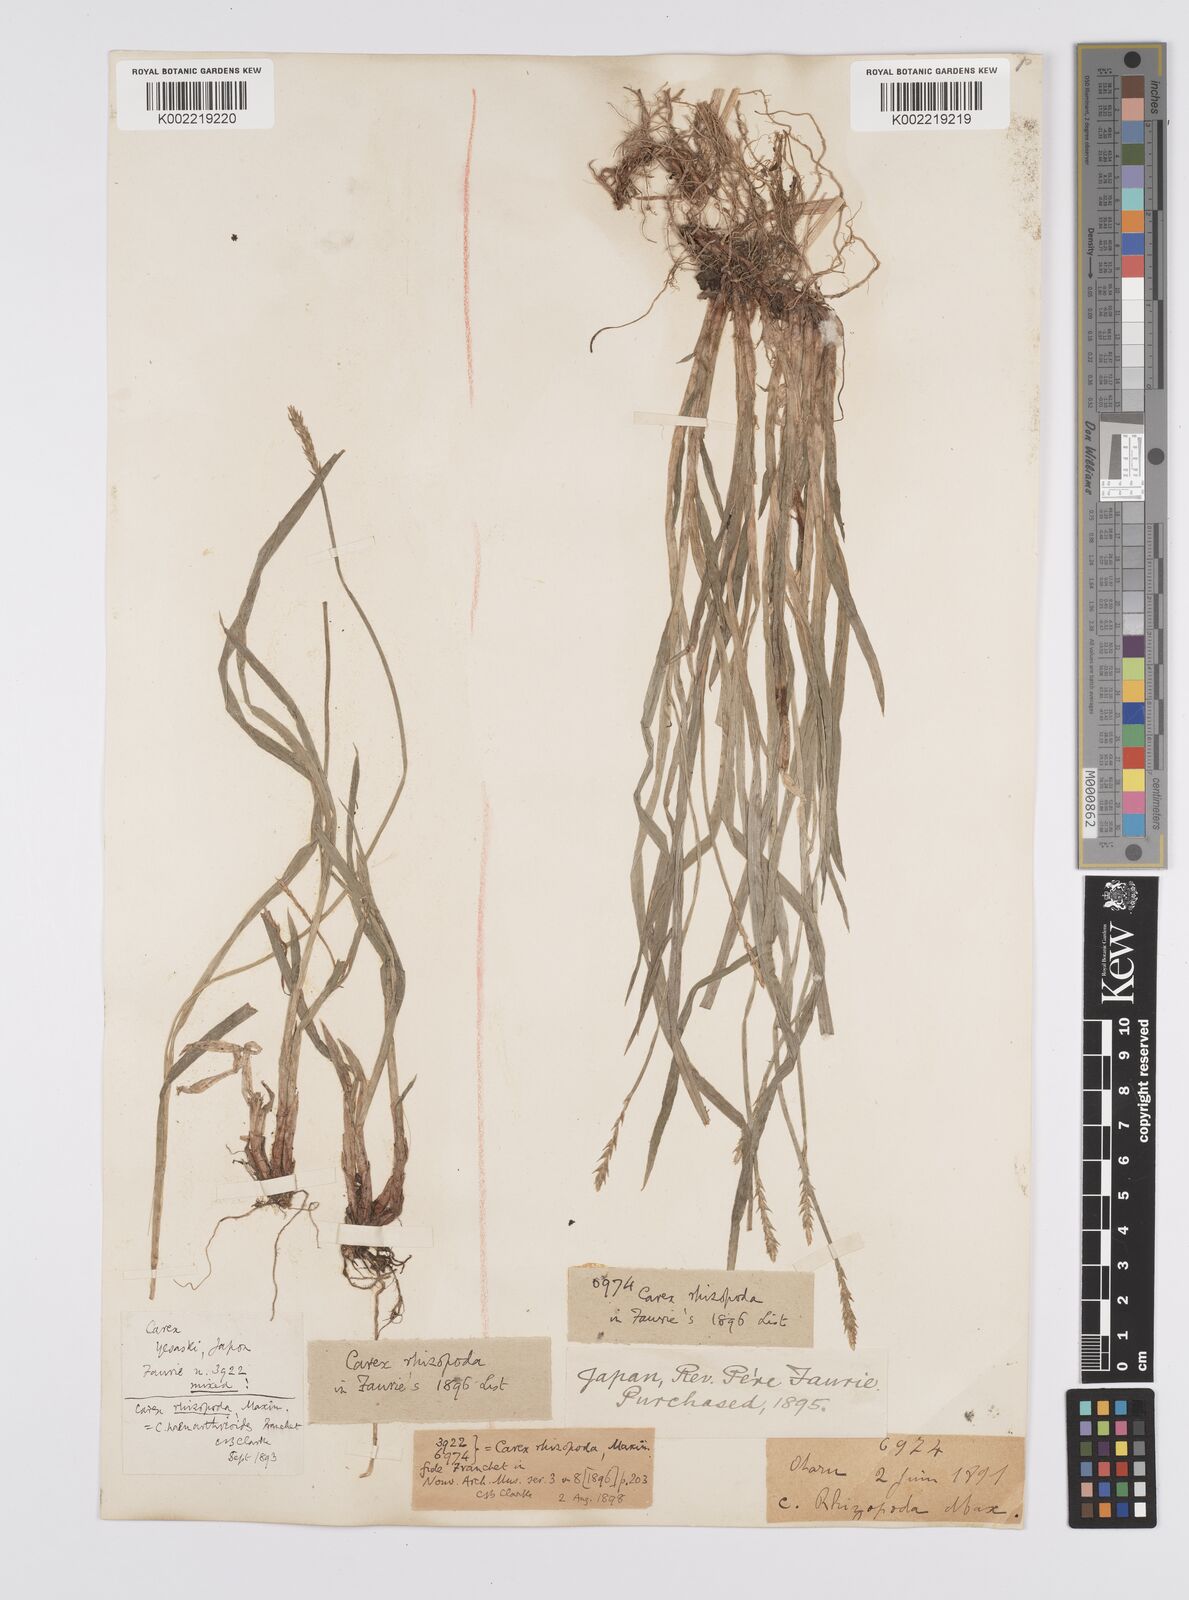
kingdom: Plantae
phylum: Tracheophyta
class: Liliopsida
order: Poales
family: Cyperaceae
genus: Carex
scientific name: Carex rhizopoda
